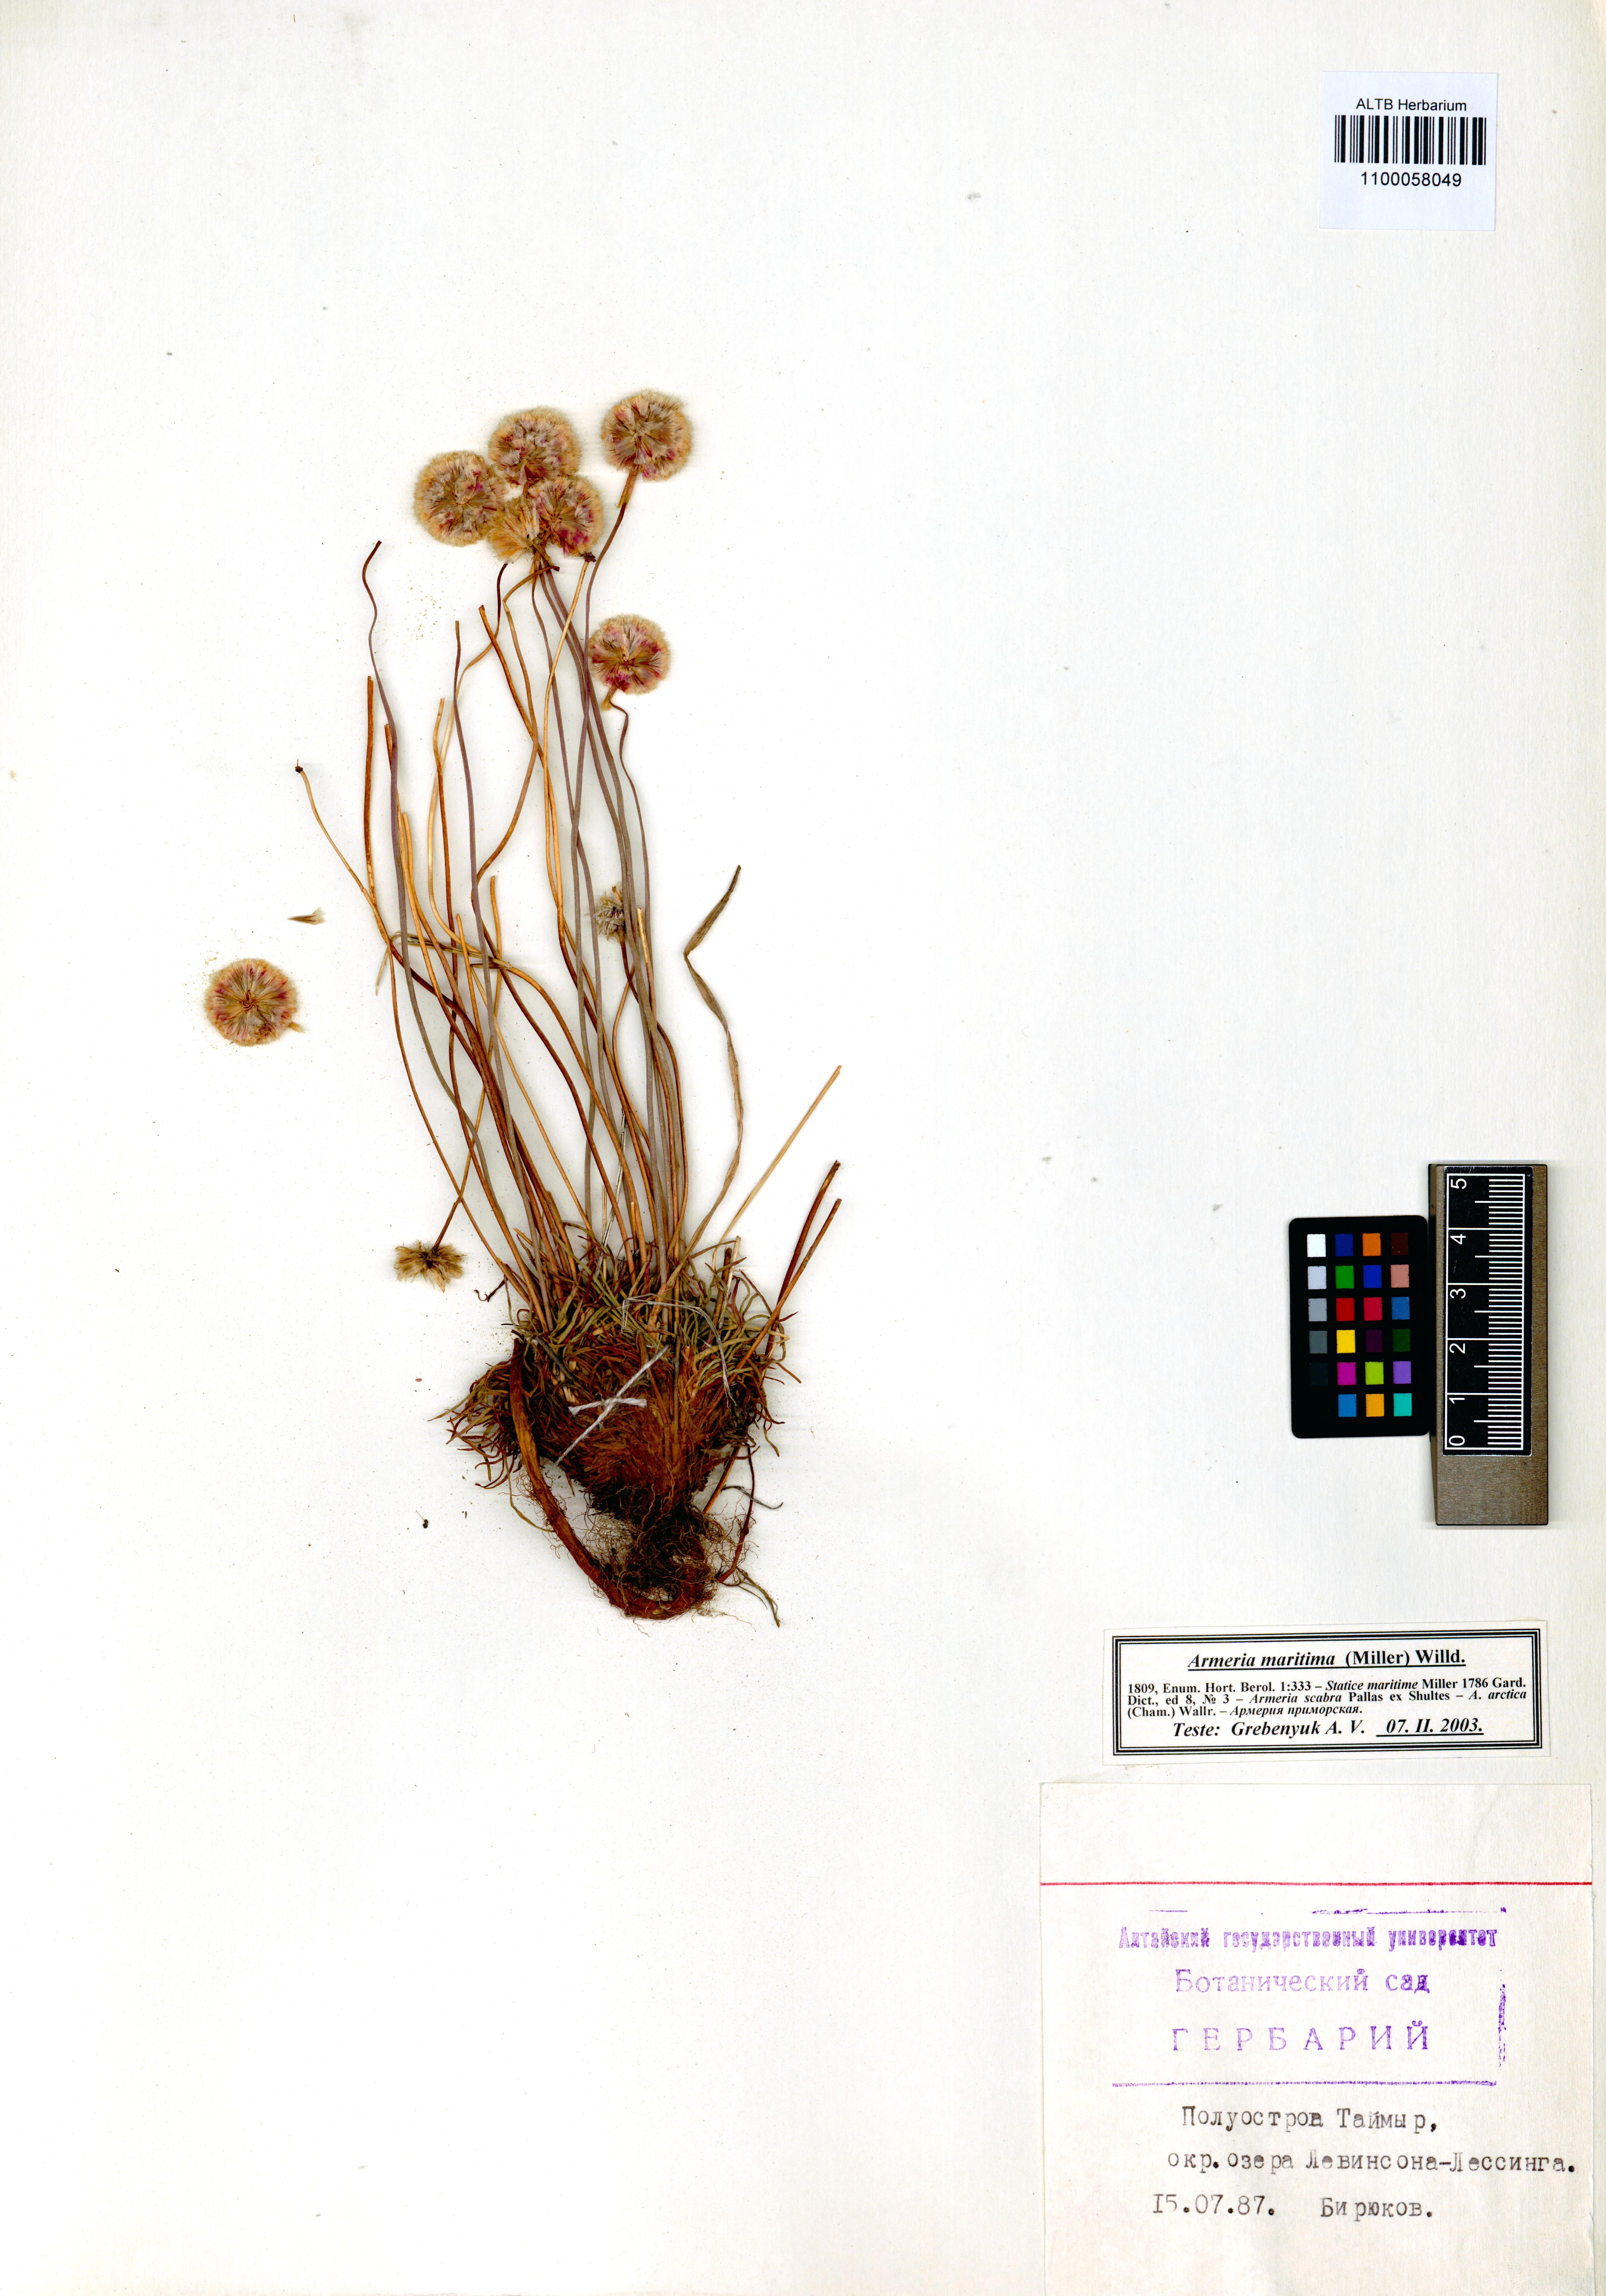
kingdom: Plantae
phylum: Tracheophyta
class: Magnoliopsida
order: Caryophyllales
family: Plumbaginaceae
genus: Armeria
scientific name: Armeria maritima
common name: Thrift
